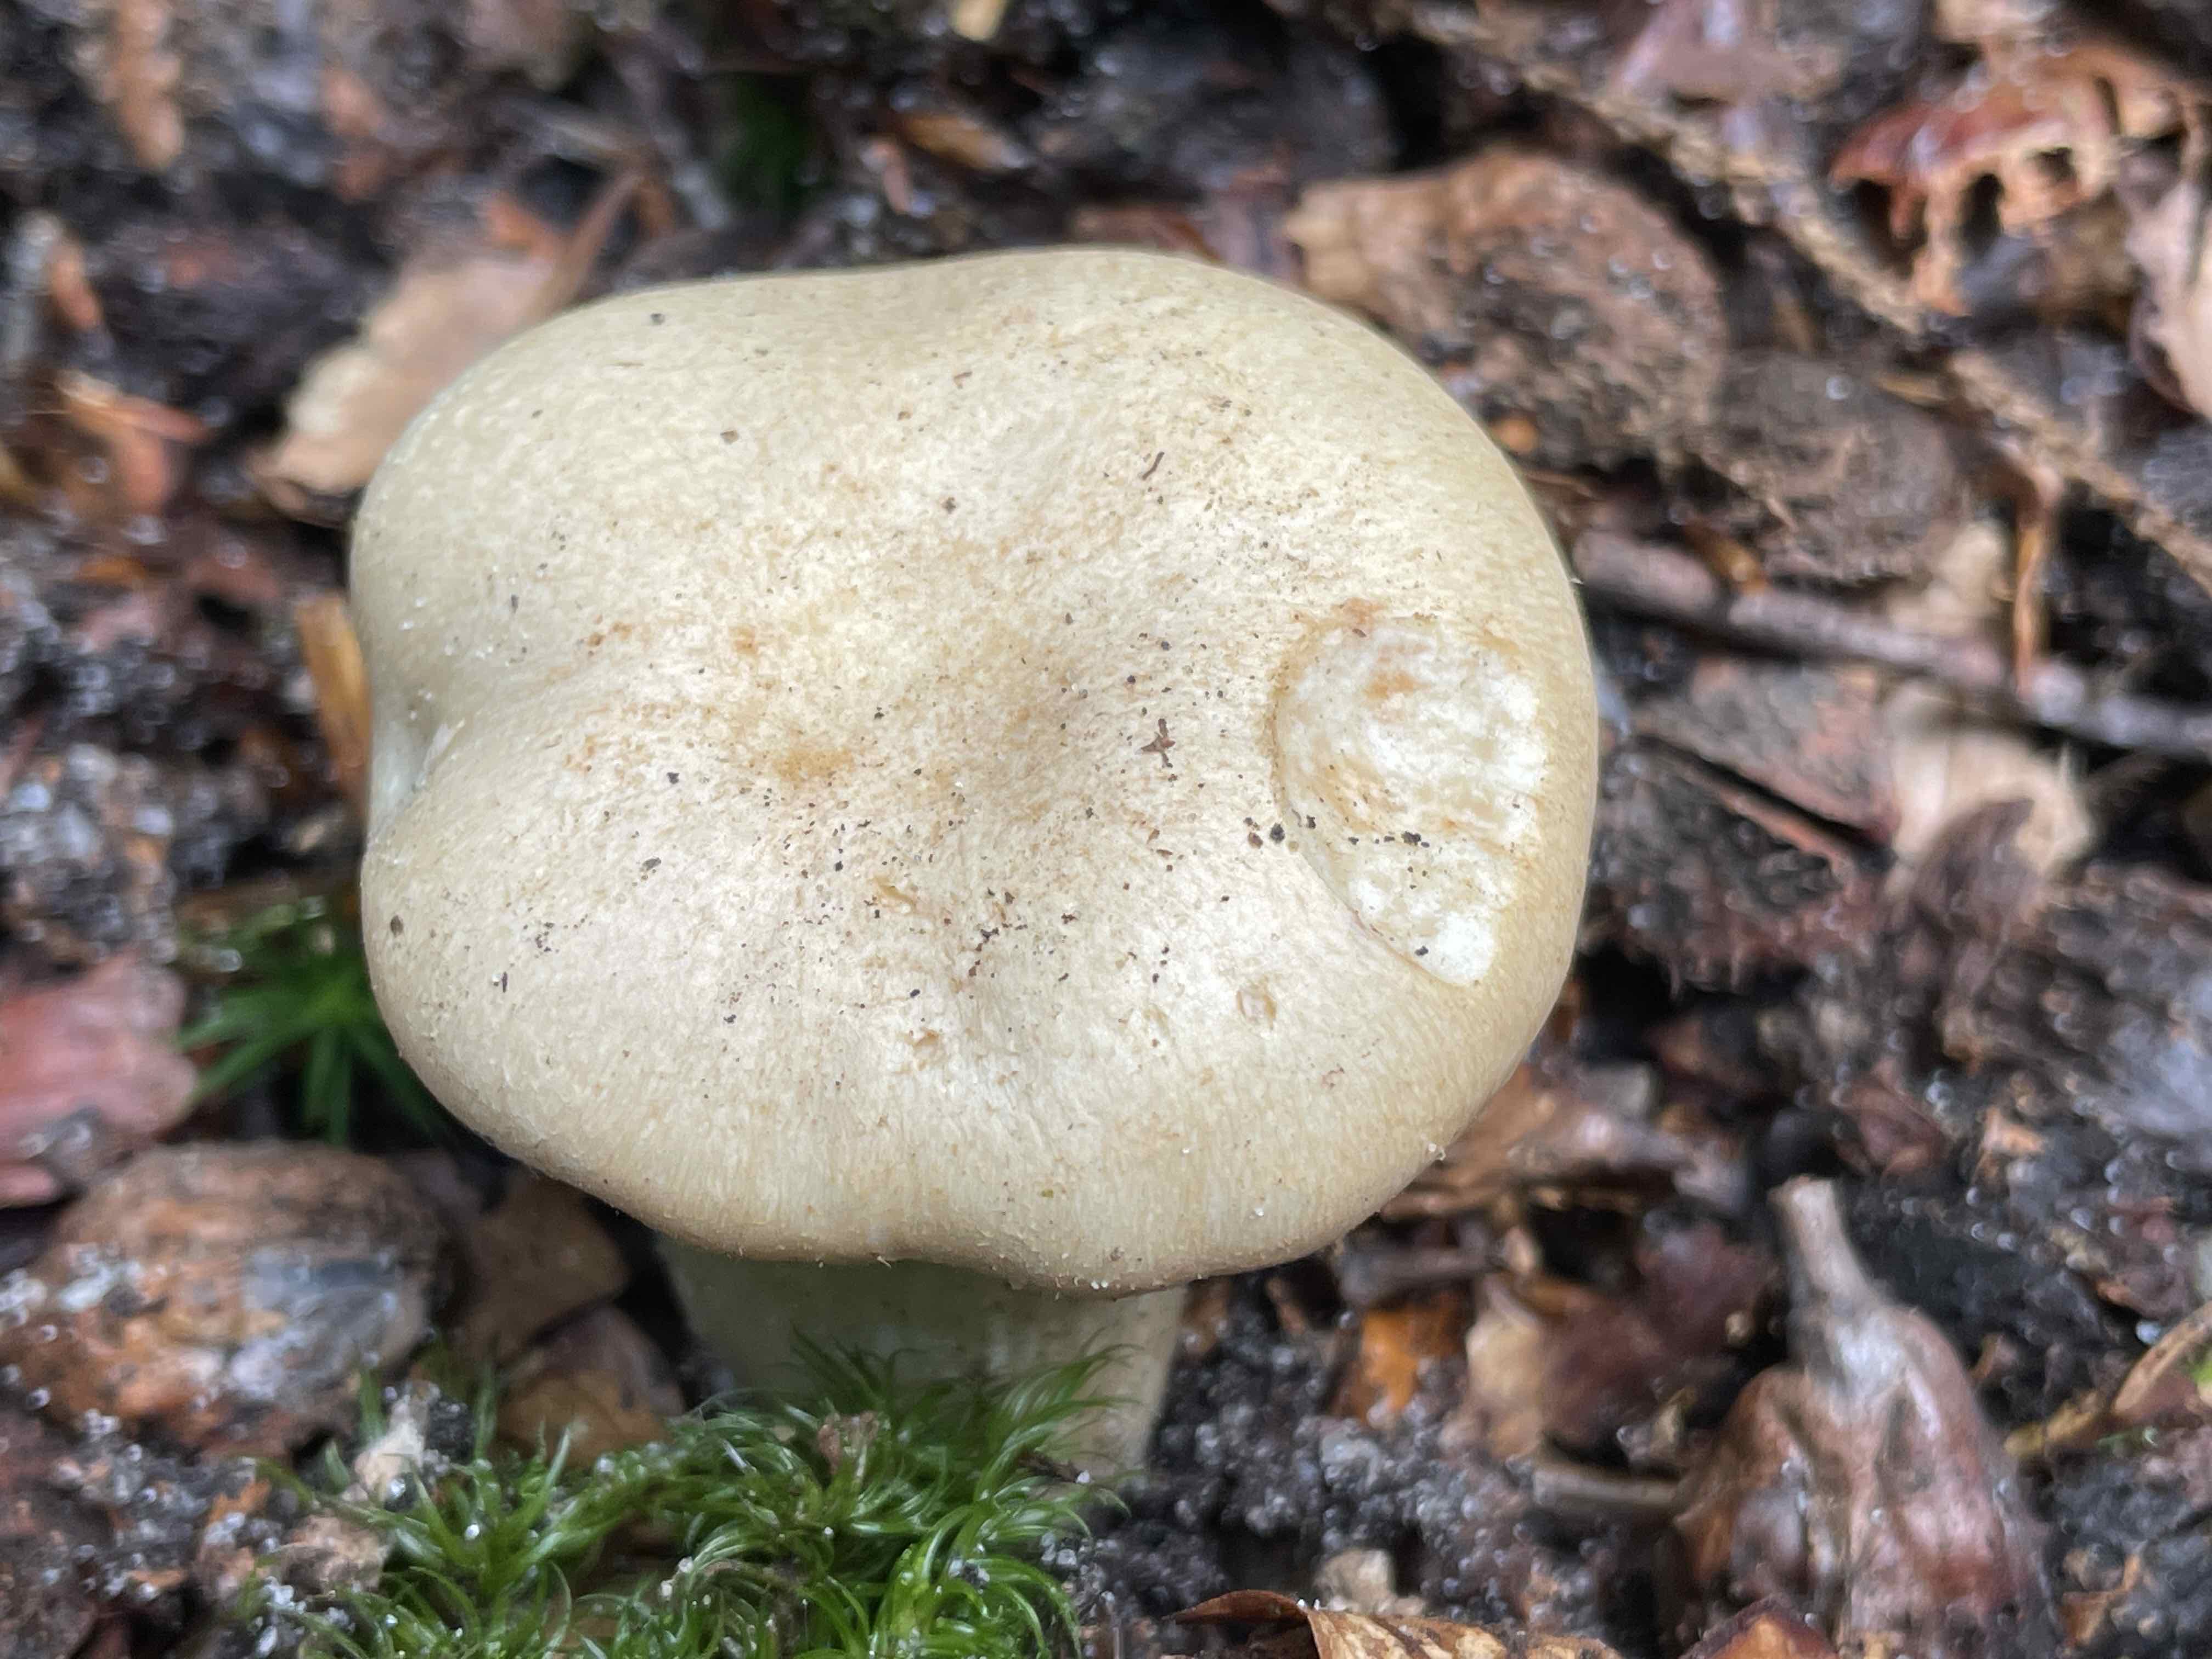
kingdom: Fungi
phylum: Basidiomycota
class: Agaricomycetes
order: Agaricales
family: Hygrophoraceae
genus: Hygrophorus
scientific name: Hygrophorus penarius
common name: spiselig sneglehat
